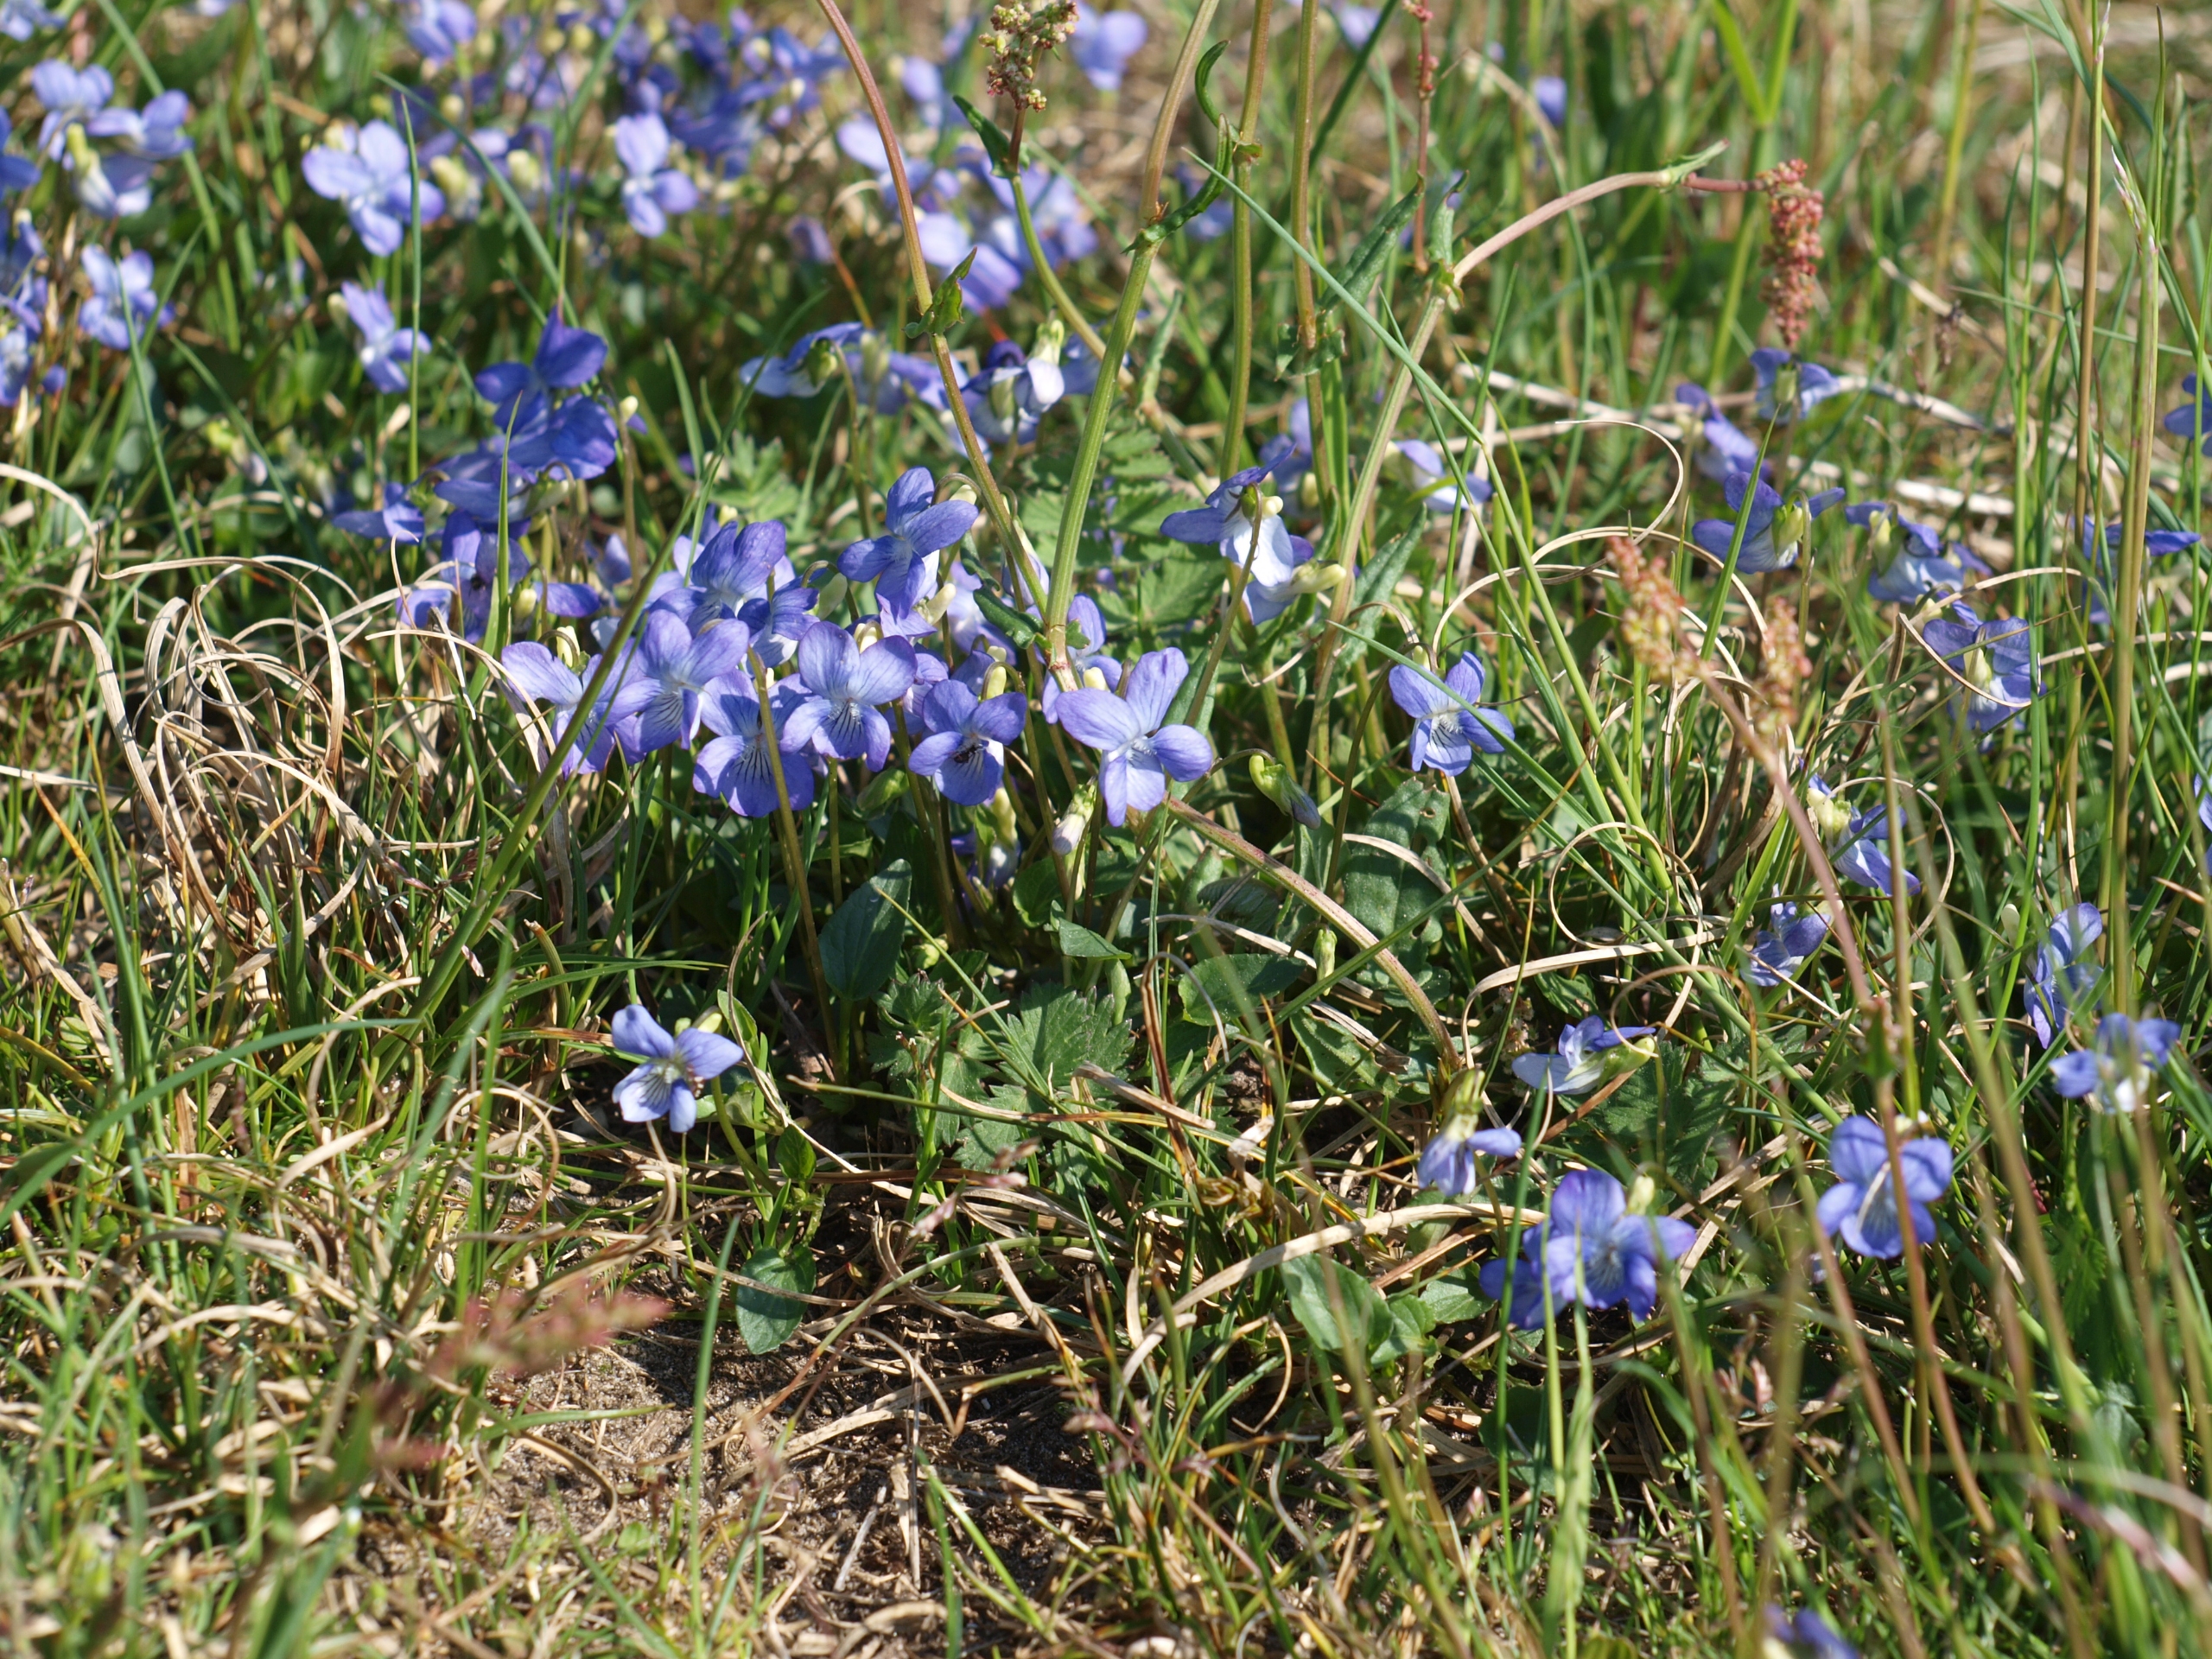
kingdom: Plantae
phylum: Tracheophyta
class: Magnoliopsida
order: Malpighiales
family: Violaceae
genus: Viola
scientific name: Viola canina
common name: Hunde-viol
